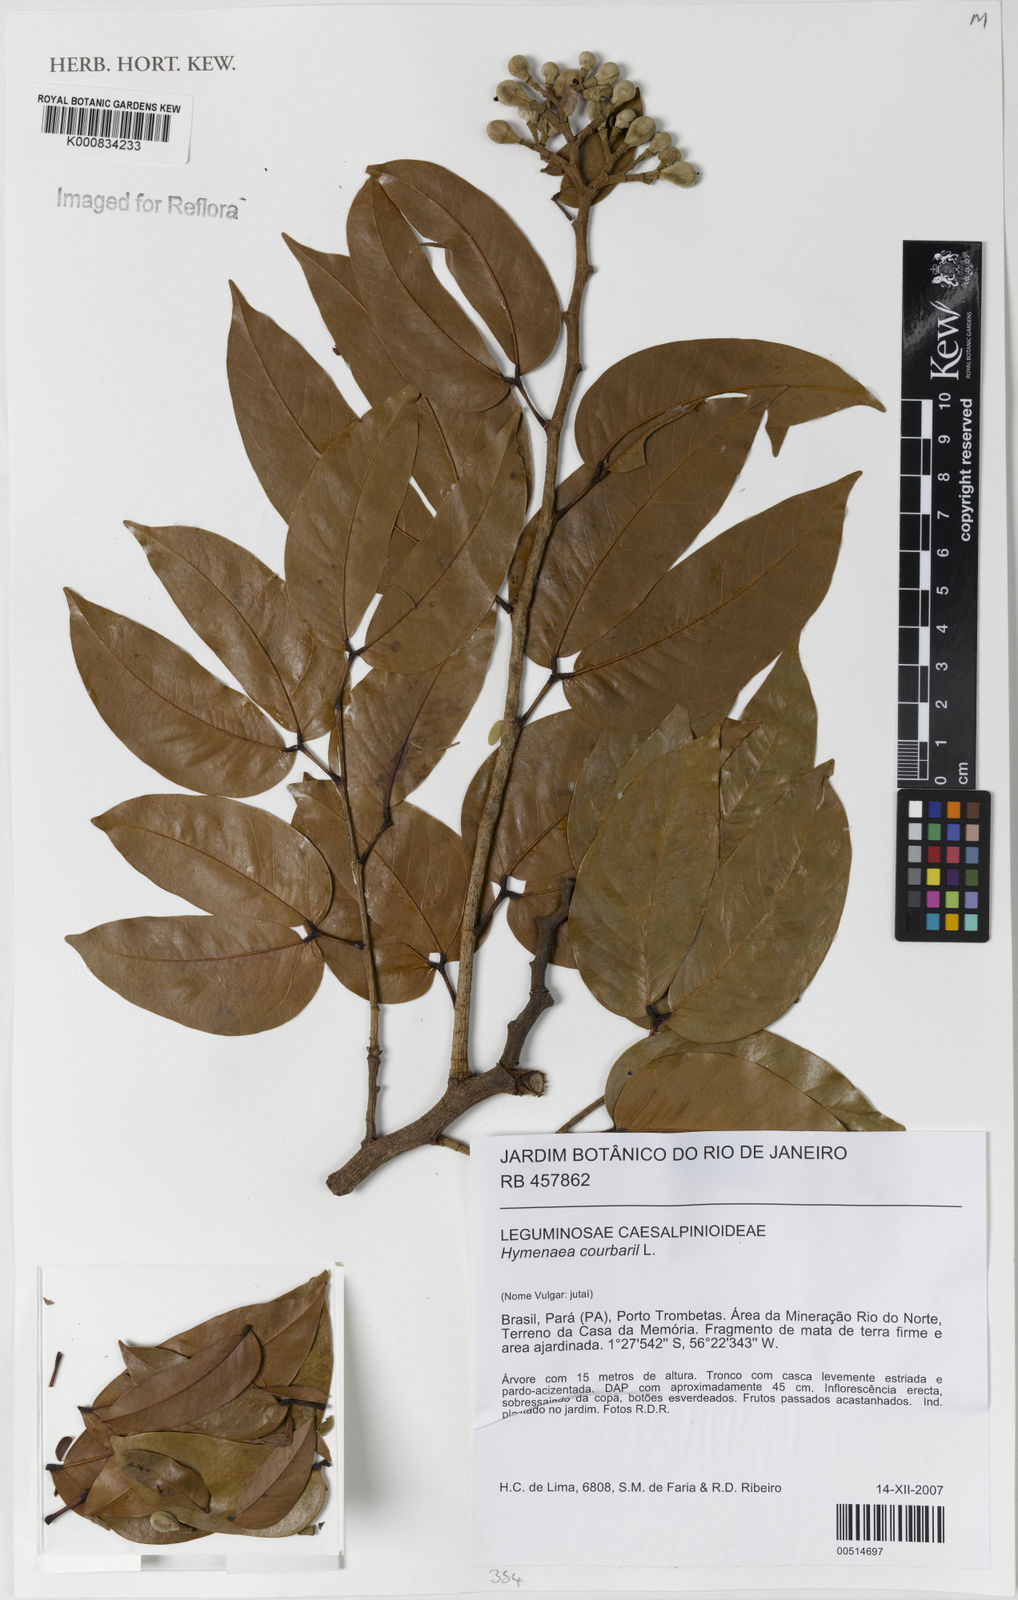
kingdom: Plantae
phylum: Tracheophyta
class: Magnoliopsida
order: Fabales
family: Fabaceae
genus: Hymenaea
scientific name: Hymenaea courbaril
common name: Brazilian copal
